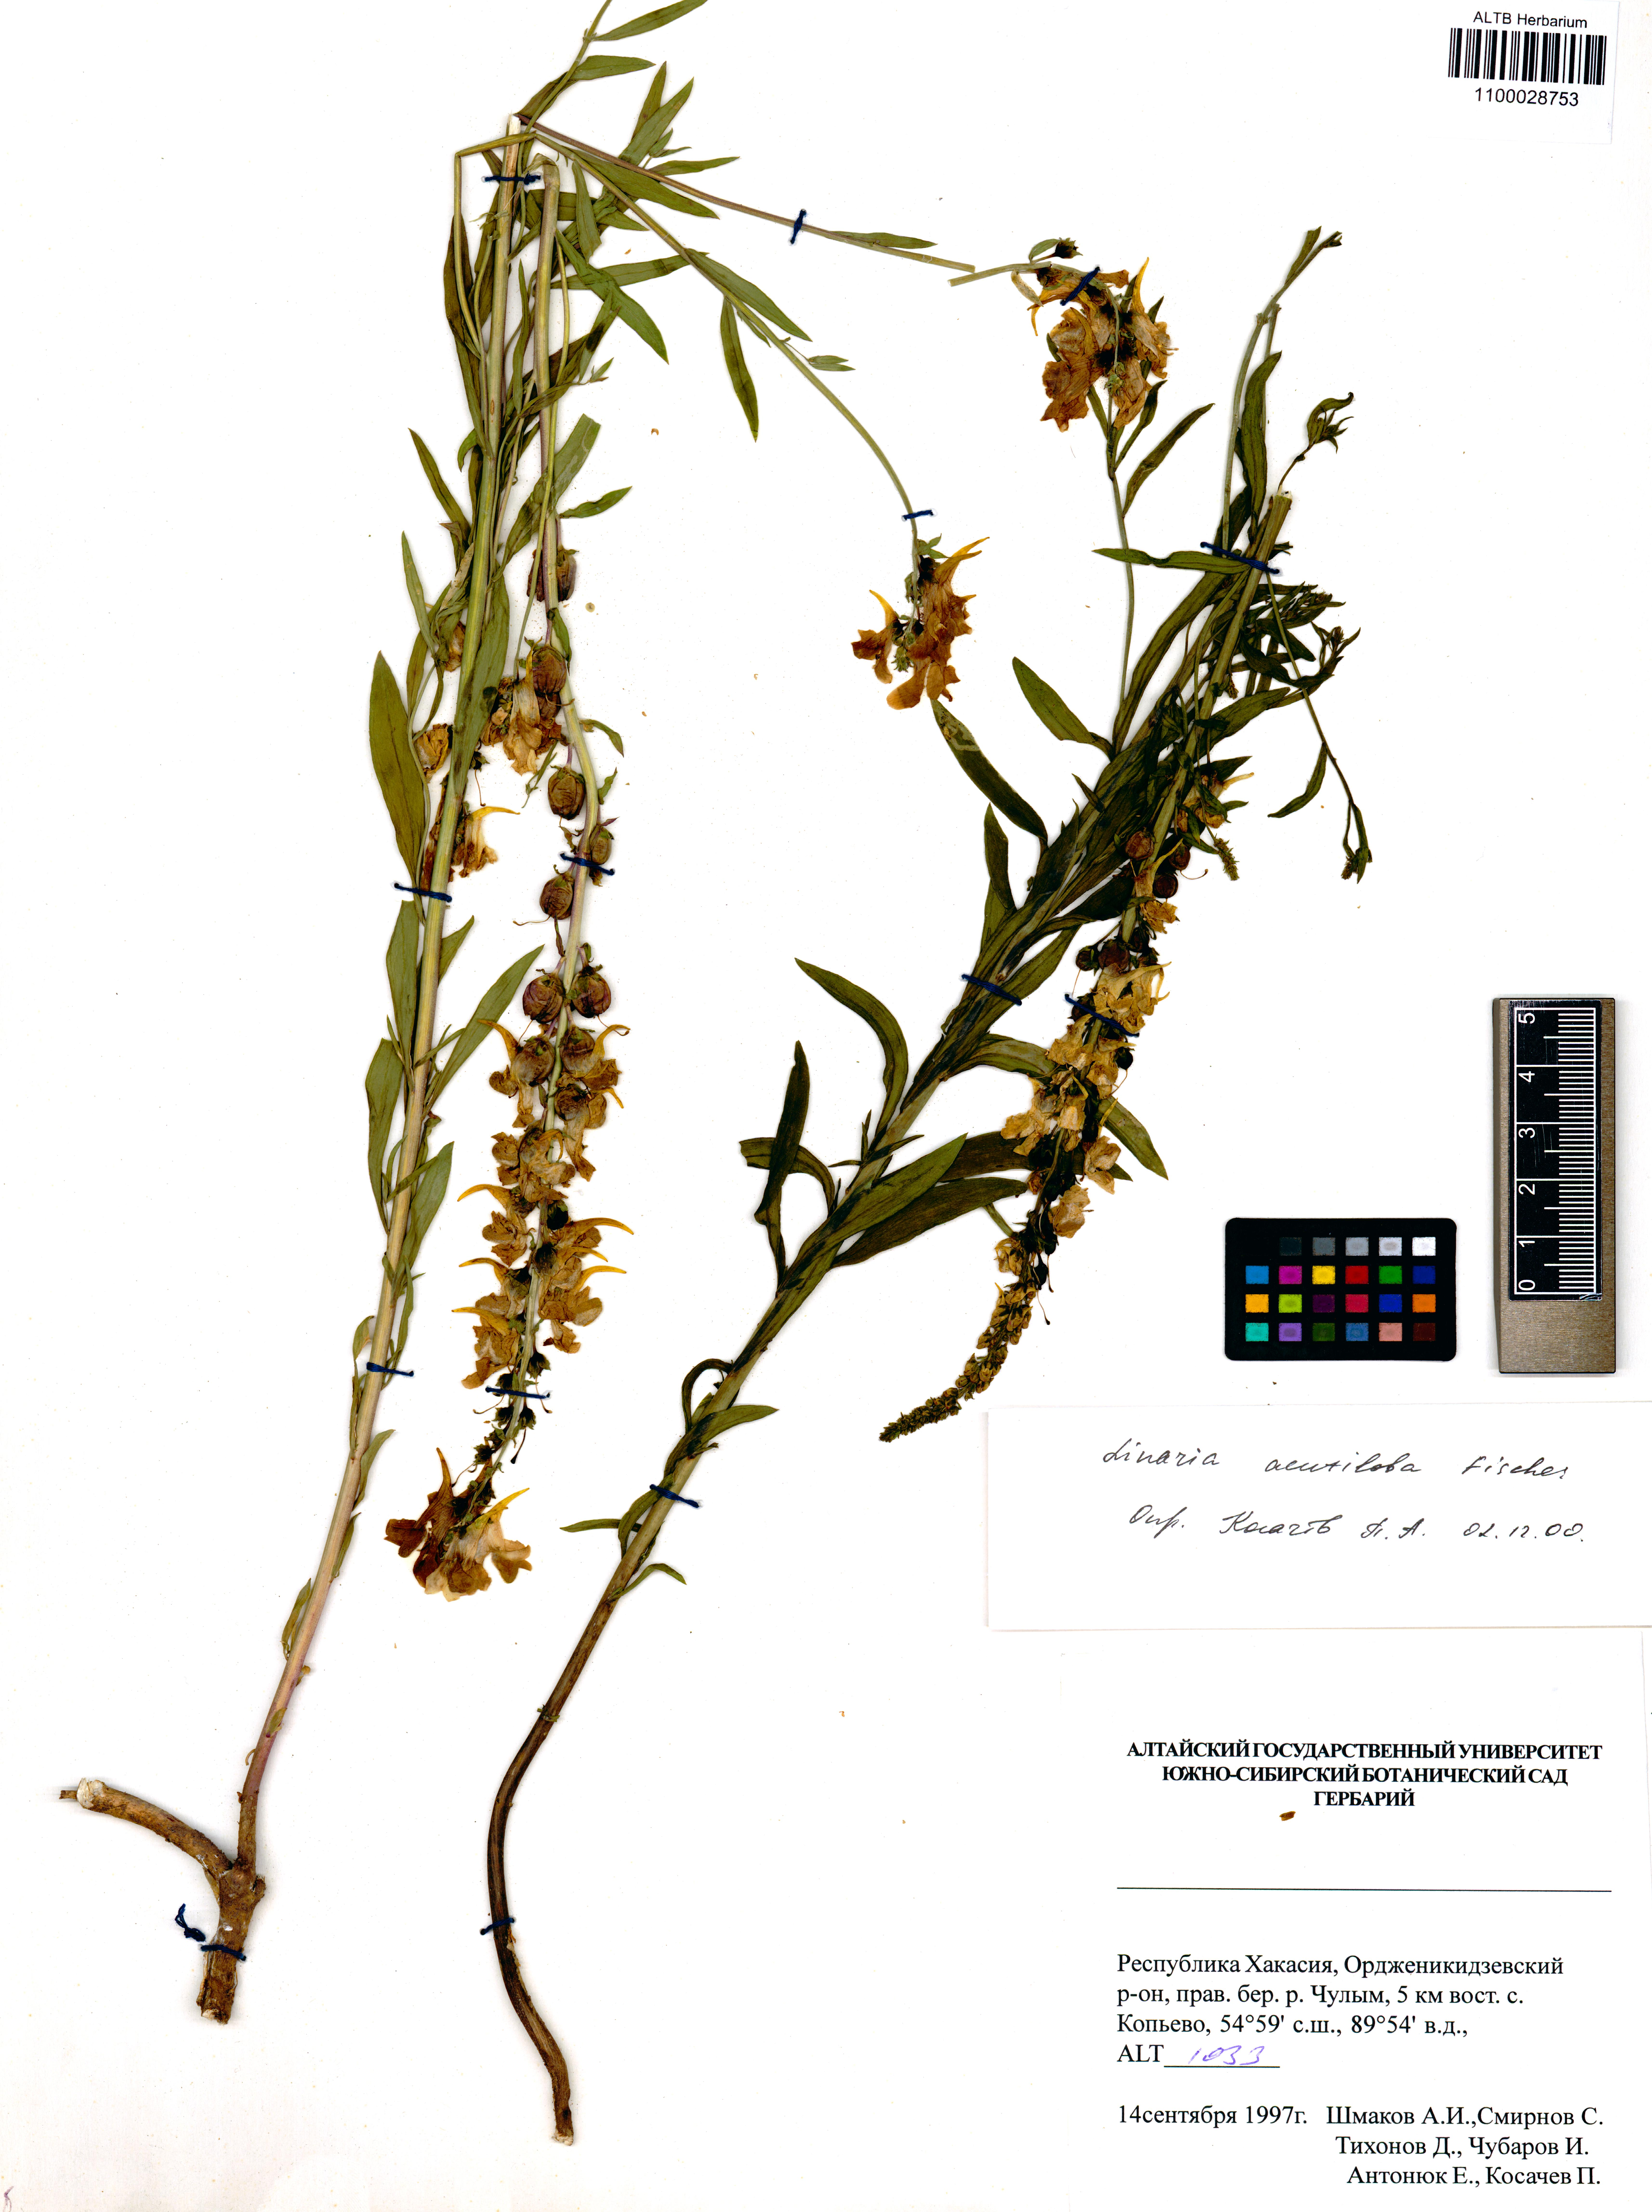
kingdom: Plantae
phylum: Tracheophyta
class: Magnoliopsida
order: Lamiales
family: Plantaginaceae
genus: Linaria
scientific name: Linaria acutiloba
